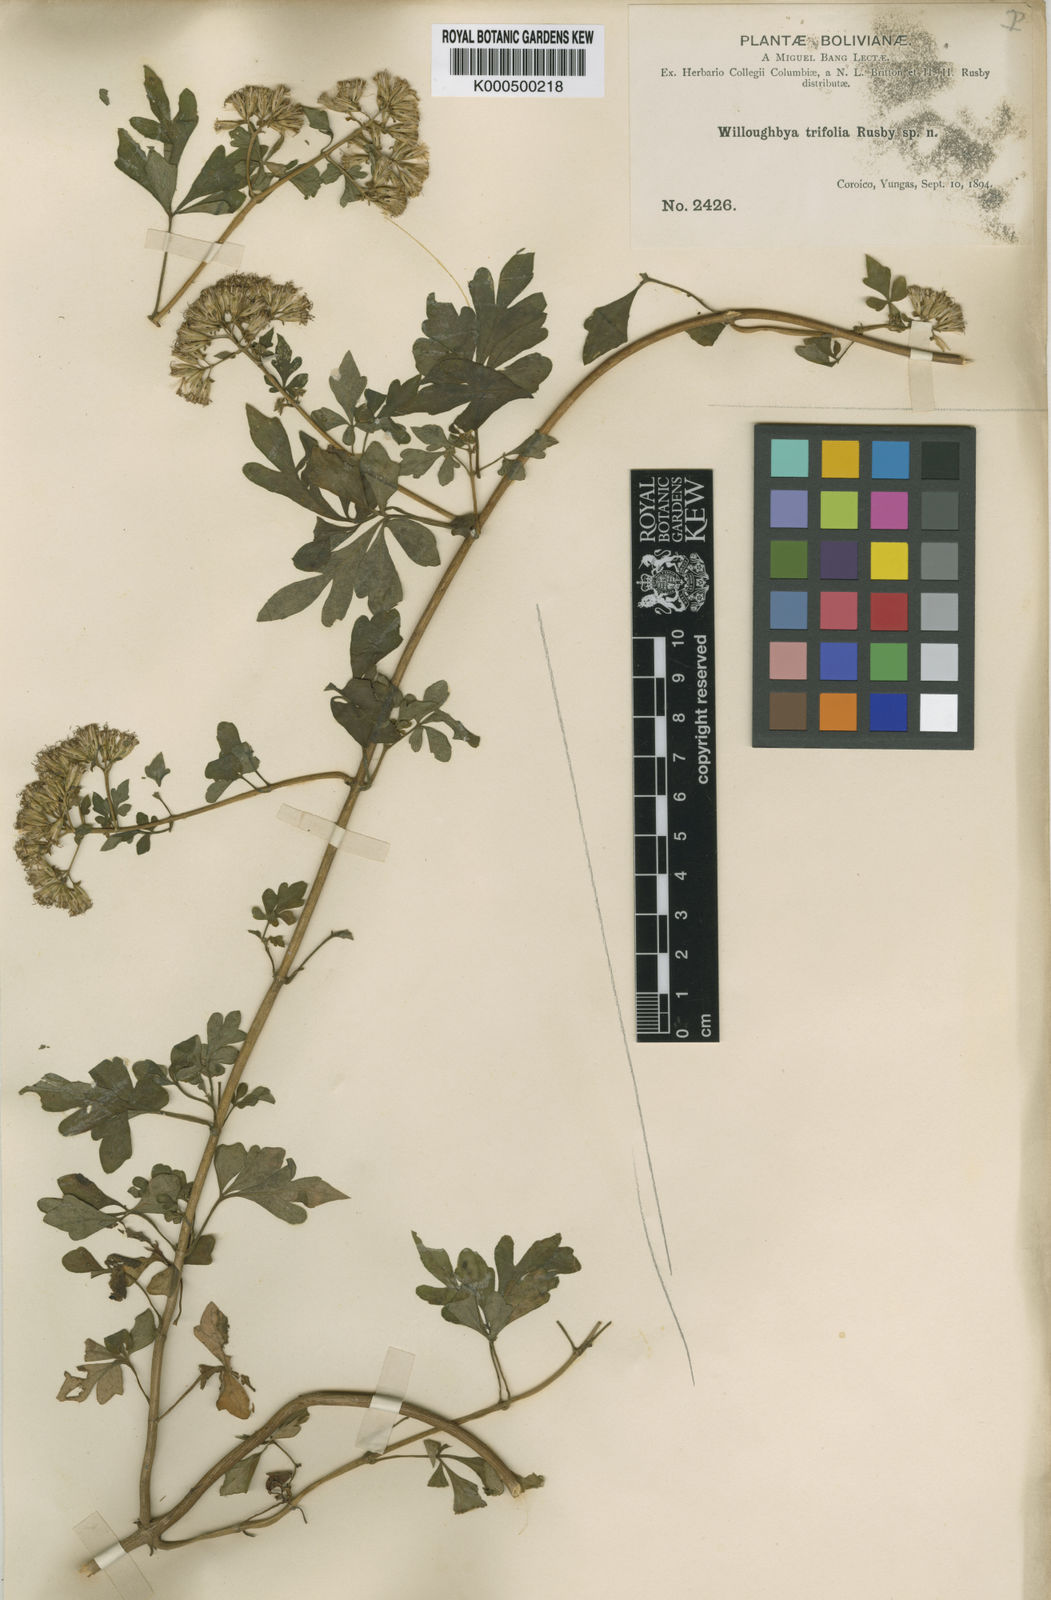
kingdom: Plantae
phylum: Tracheophyta
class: Magnoliopsida
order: Asterales
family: Asteraceae
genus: Mikania
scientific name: Mikania
